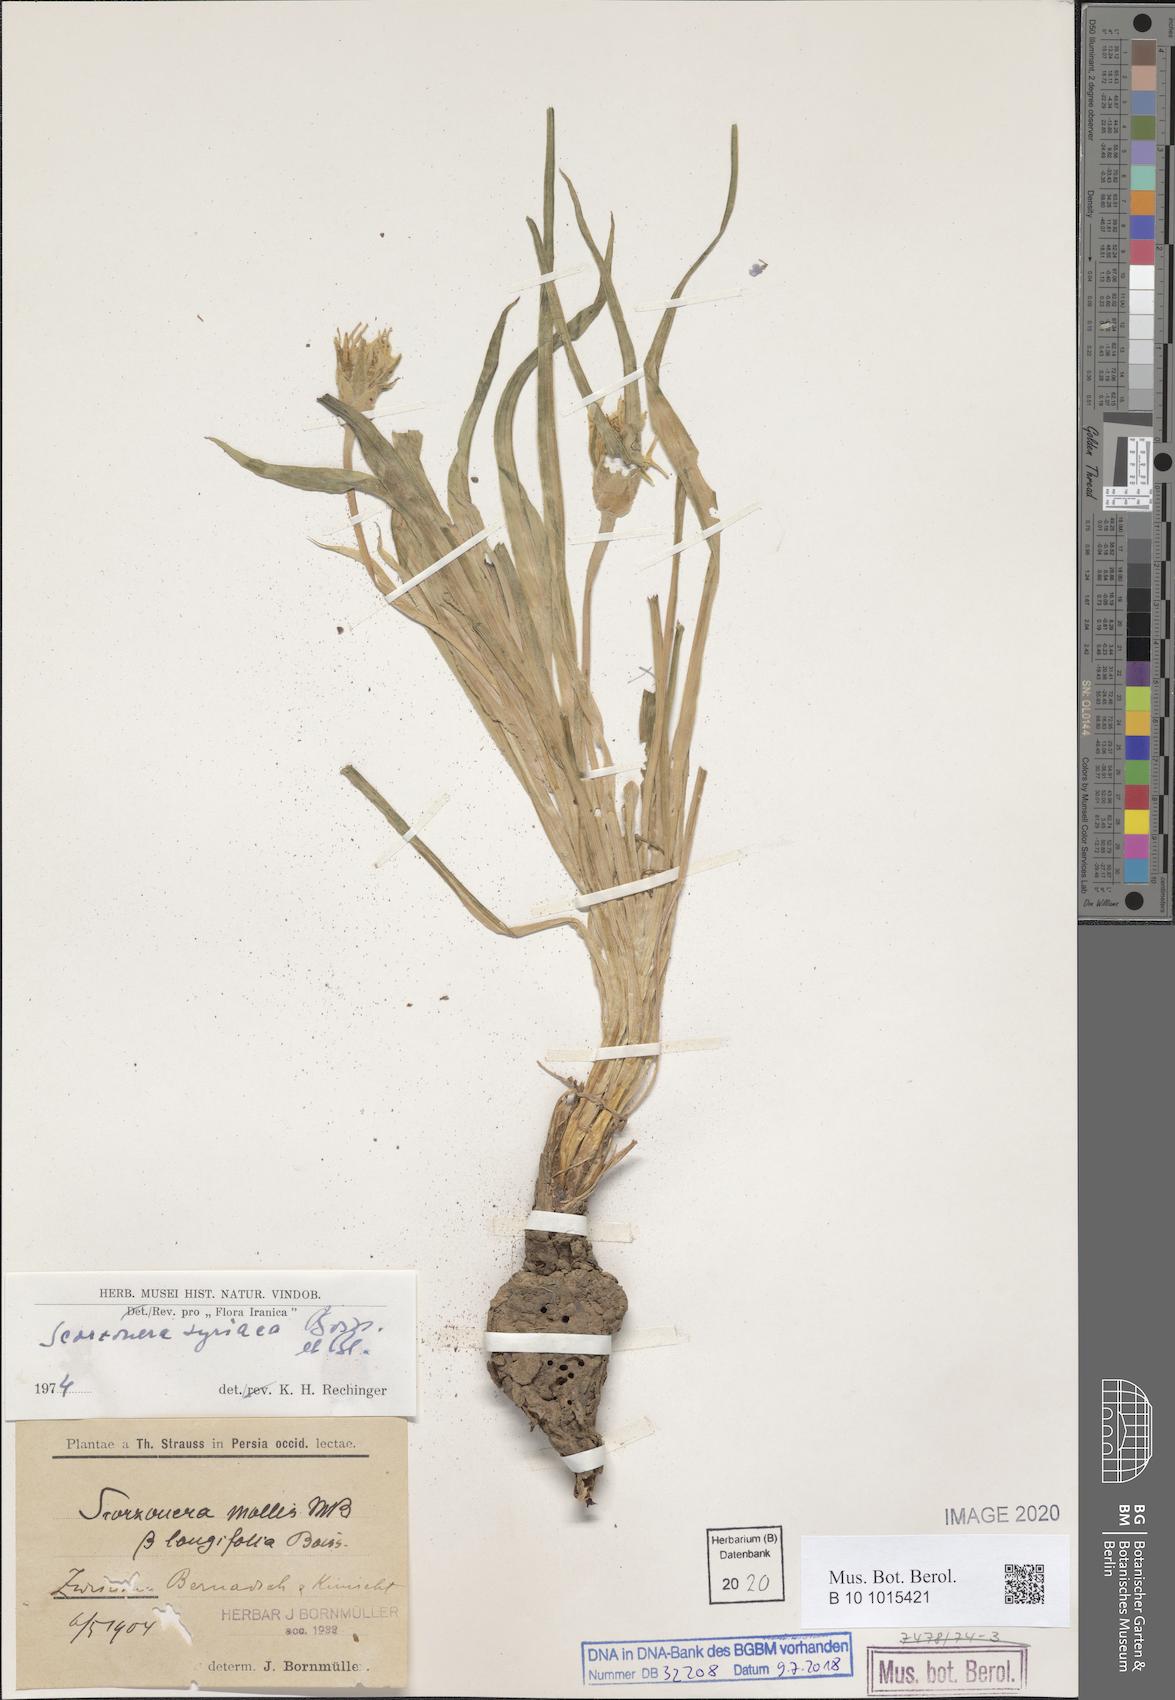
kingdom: Plantae
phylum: Tracheophyta
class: Magnoliopsida
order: Asterales
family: Asteraceae
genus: Candollea
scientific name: Candollea syriaca
